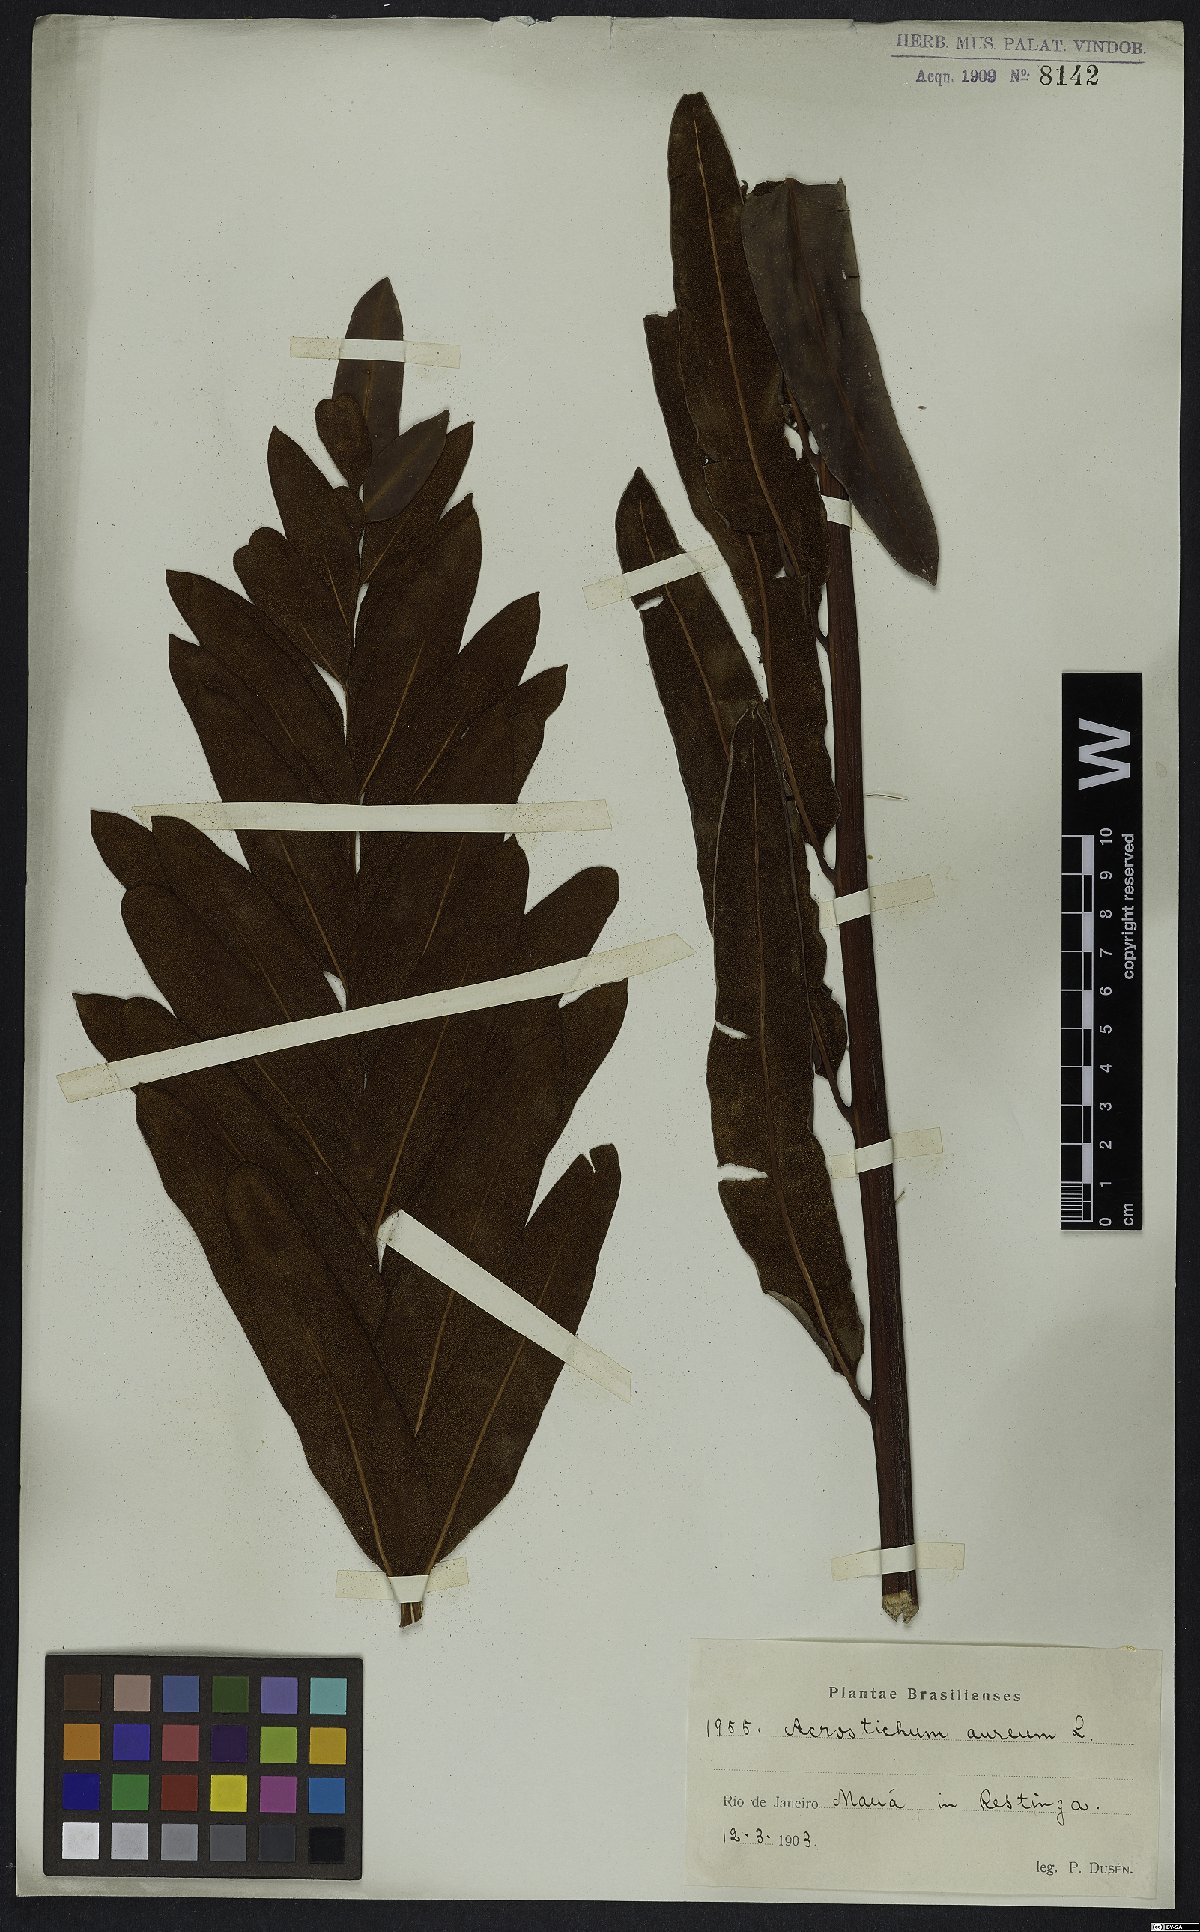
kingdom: Plantae
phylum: Tracheophyta
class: Polypodiopsida
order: Polypodiales
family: Pteridaceae
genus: Acrostichum
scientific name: Acrostichum aureum
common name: Leather fern
